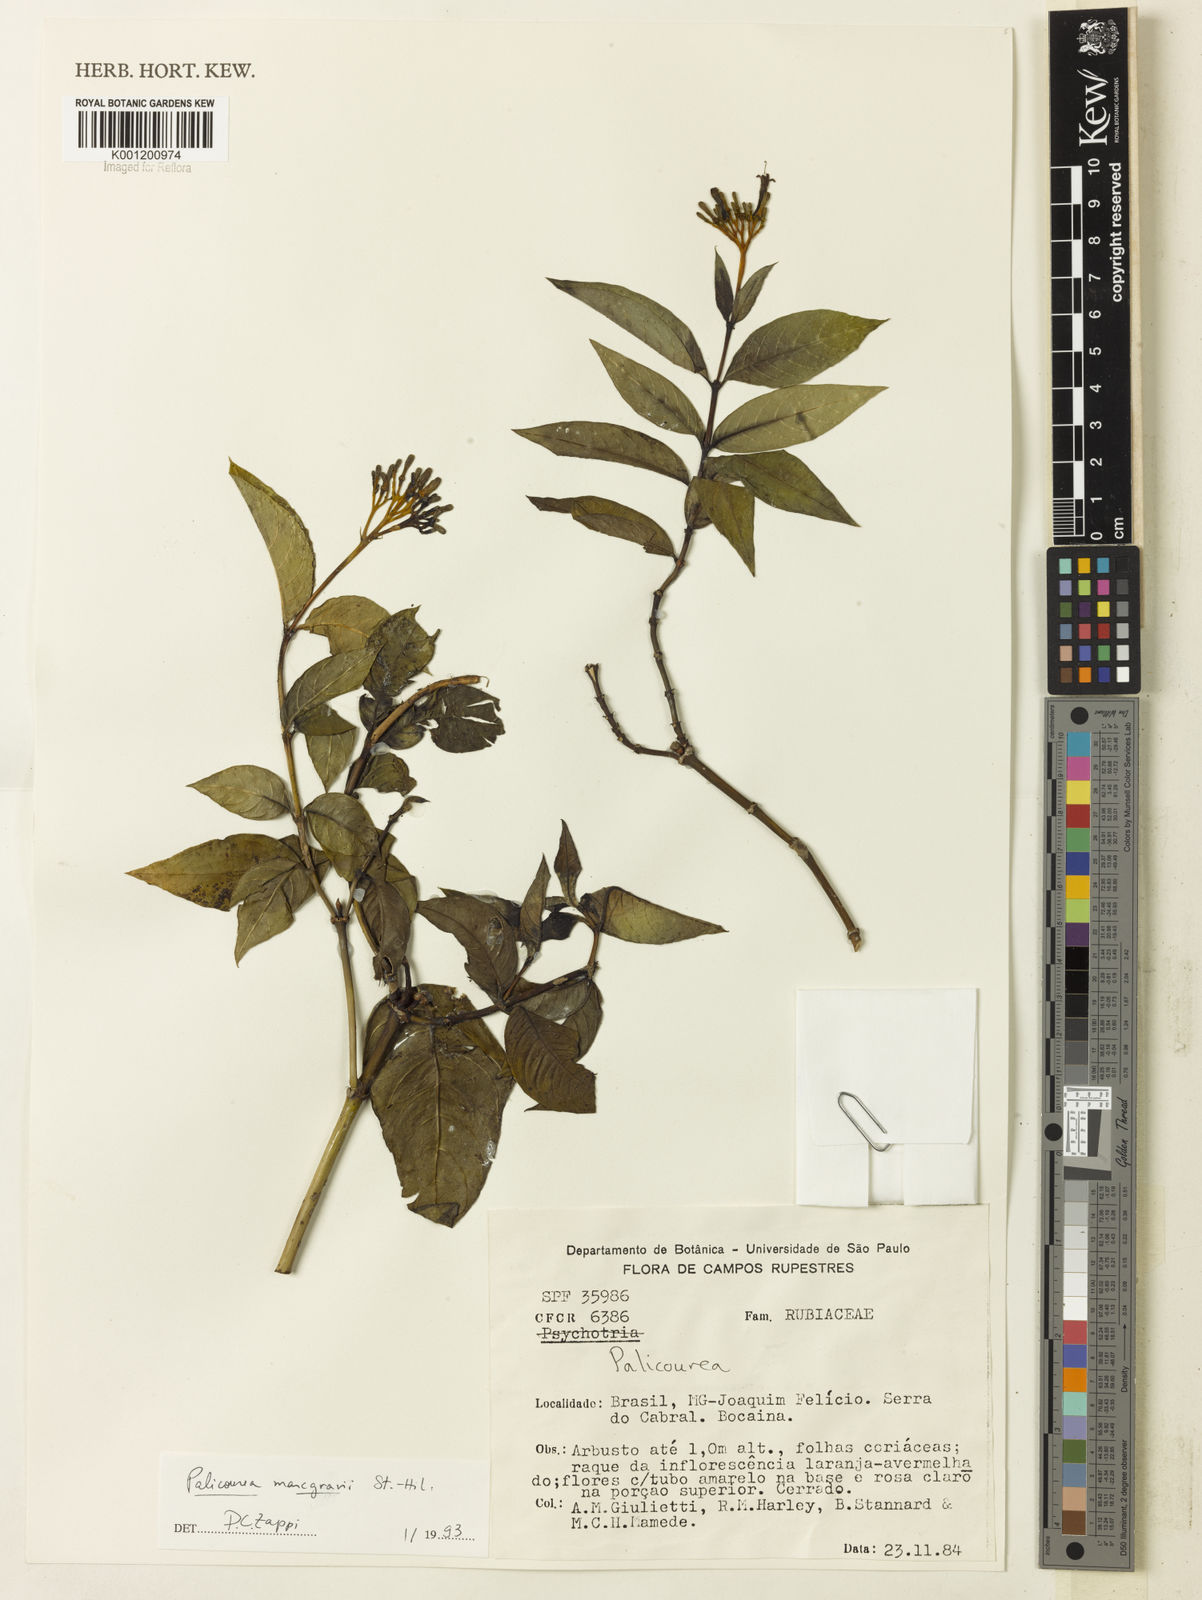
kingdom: Plantae
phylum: Tracheophyta
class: Magnoliopsida
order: Gentianales
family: Rubiaceae
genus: Palicourea
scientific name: Palicourea marcgravii
